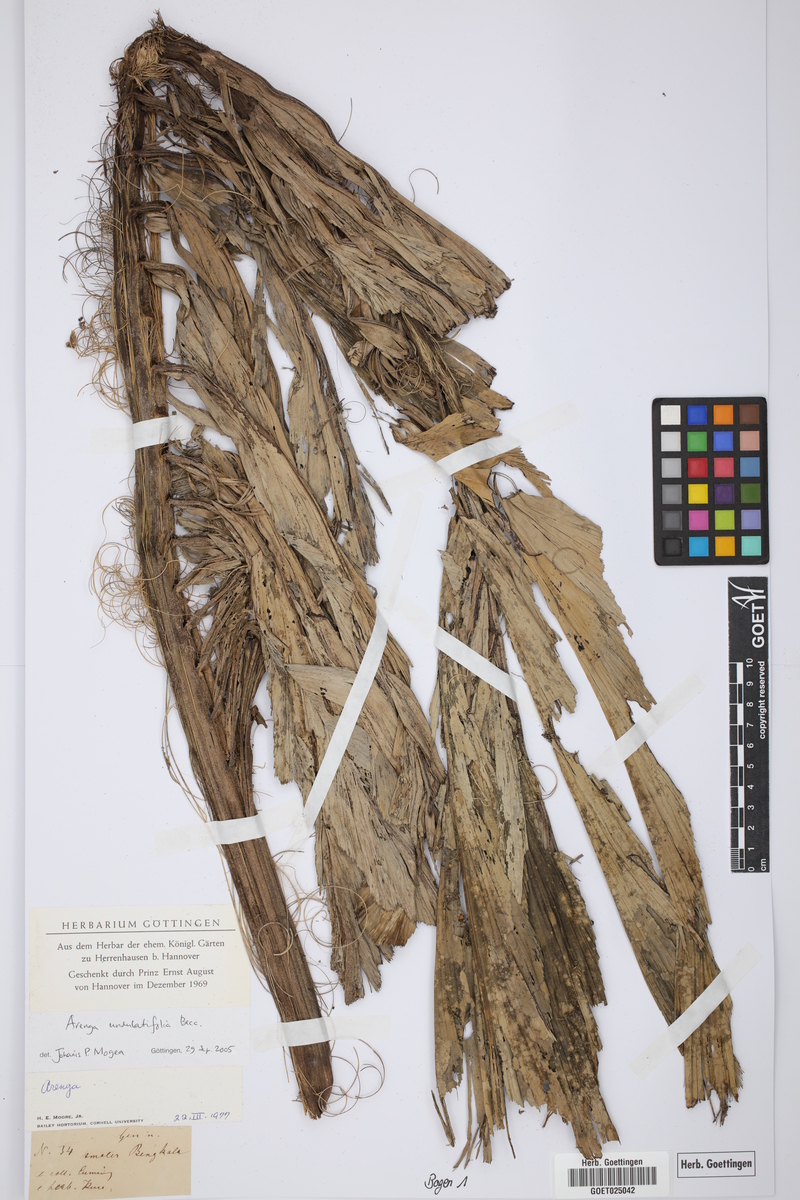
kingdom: Plantae
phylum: Tracheophyta
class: Liliopsida
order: Arecales
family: Arecaceae
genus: Arenga
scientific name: Arenga undulatifolia
